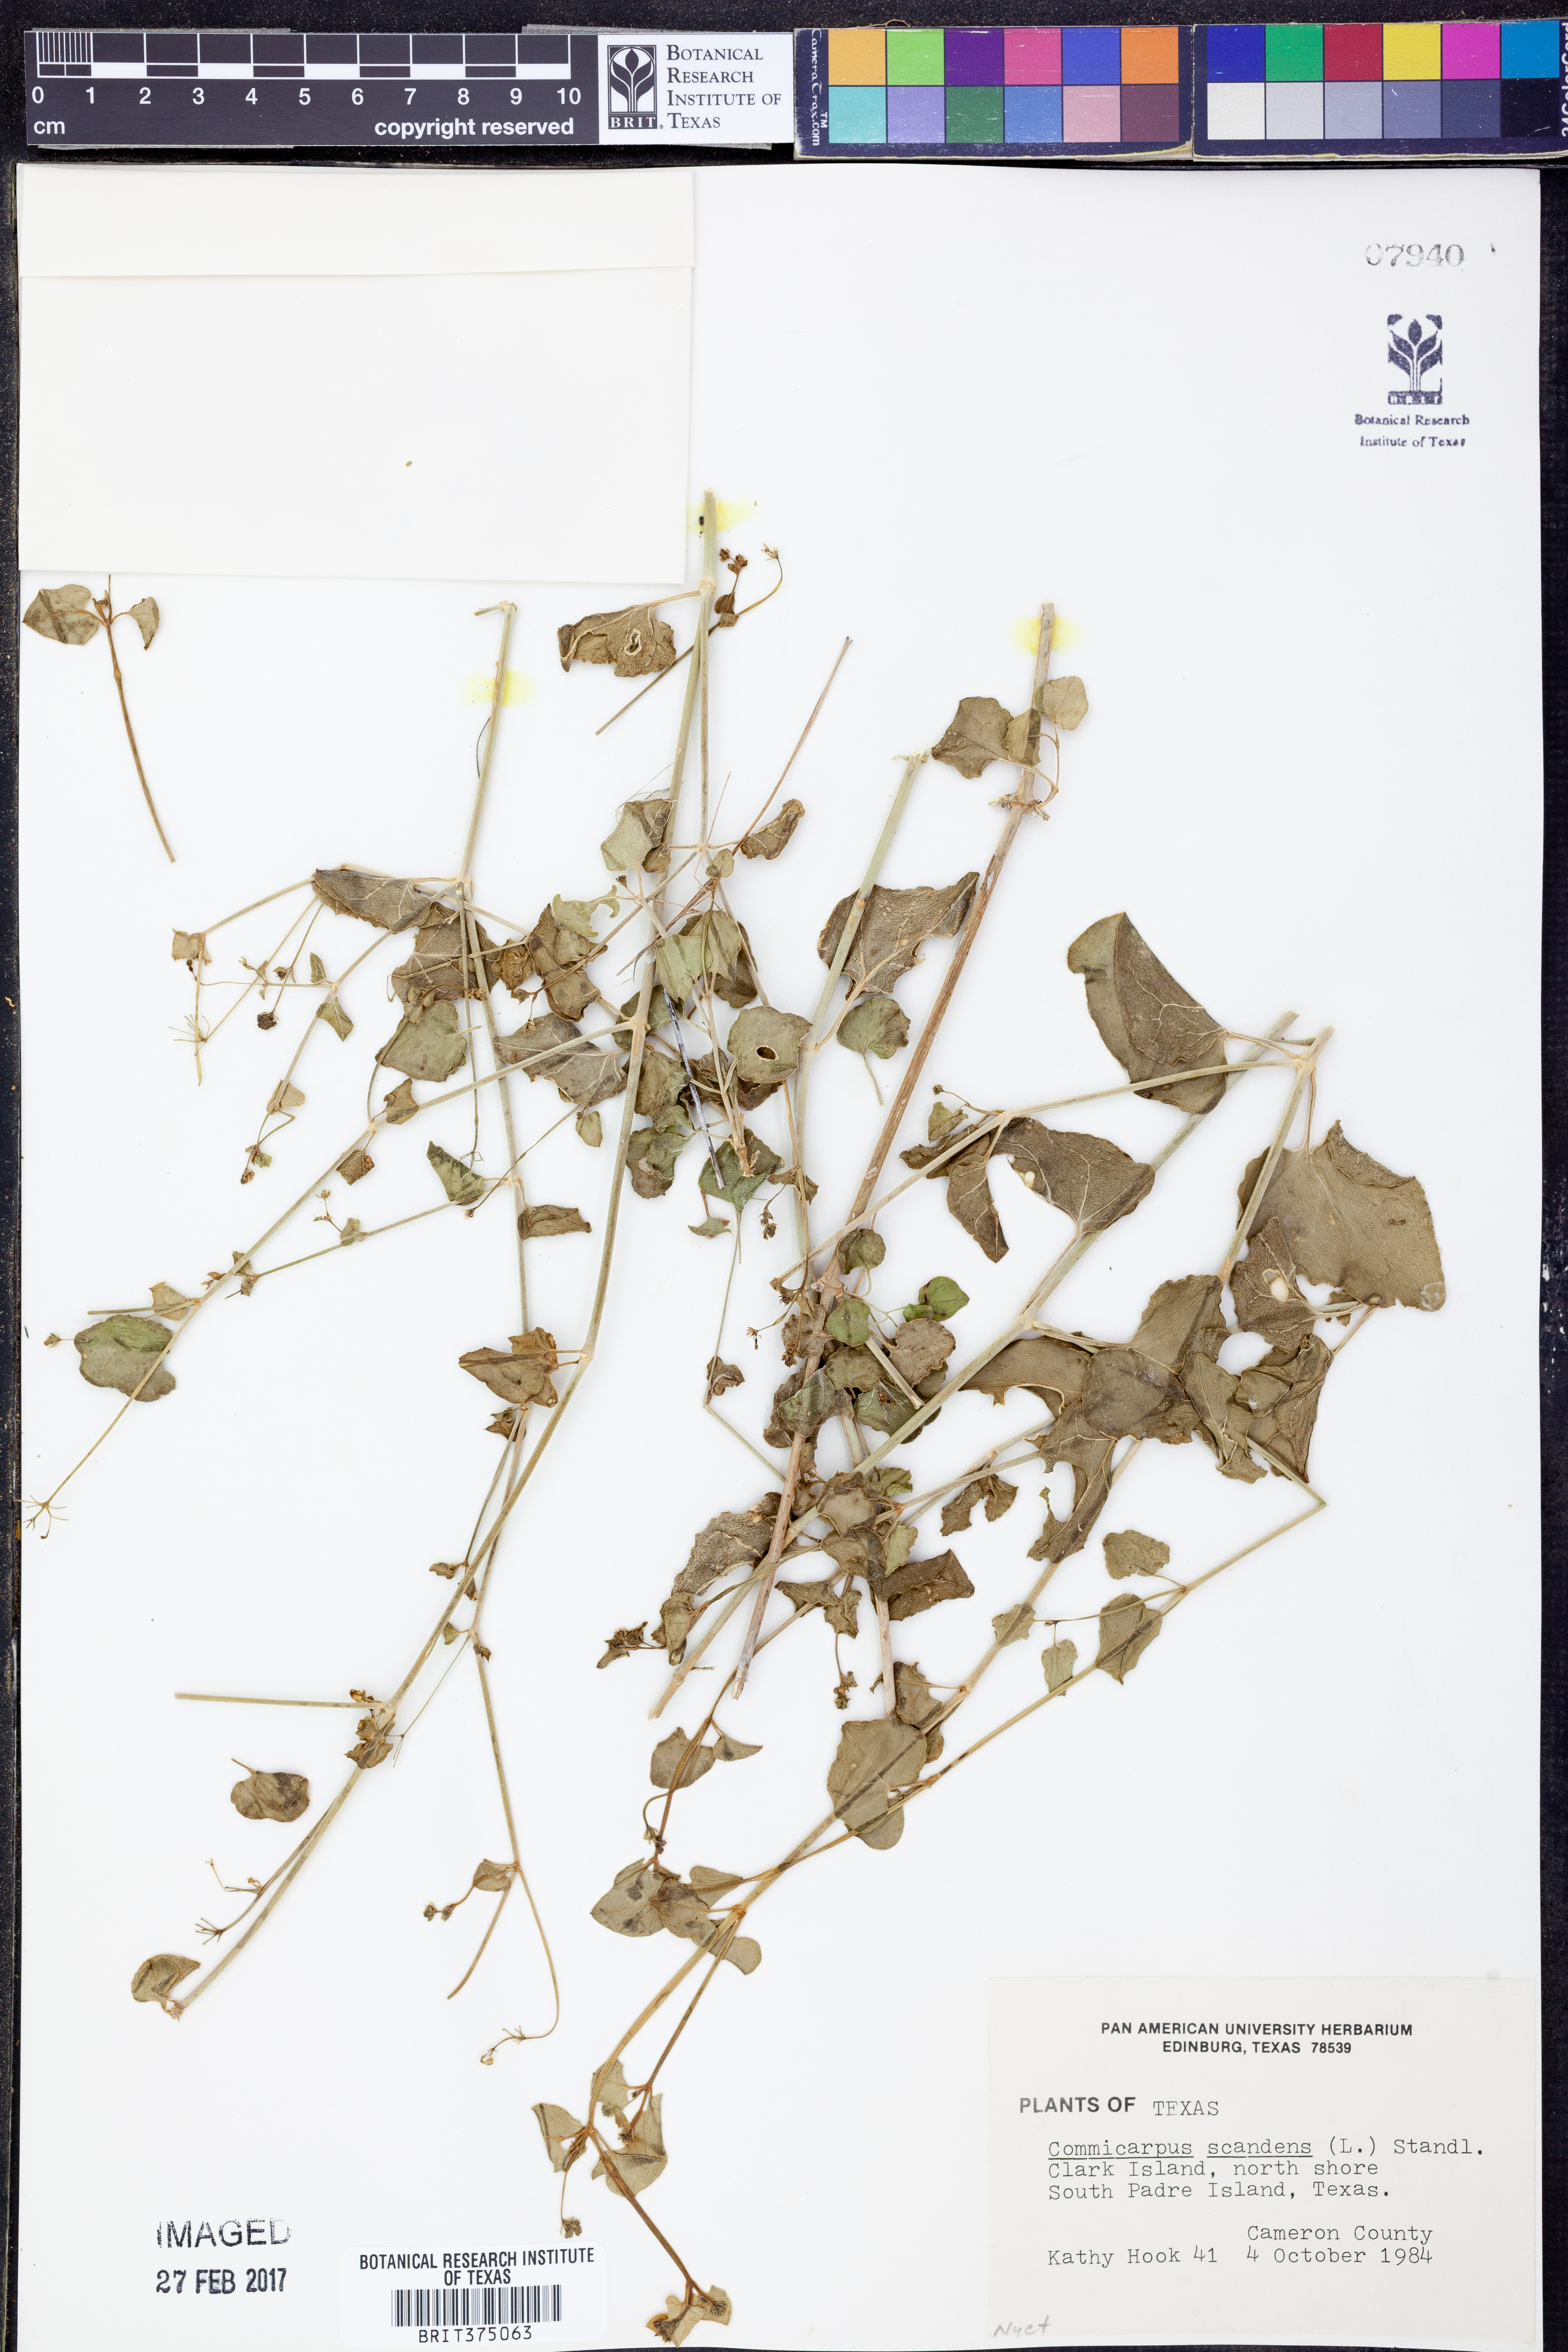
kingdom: Plantae
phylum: Tracheophyta
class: Magnoliopsida
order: Caryophyllales
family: Nyctaginaceae
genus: Commicarpus
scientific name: Commicarpus scandens
